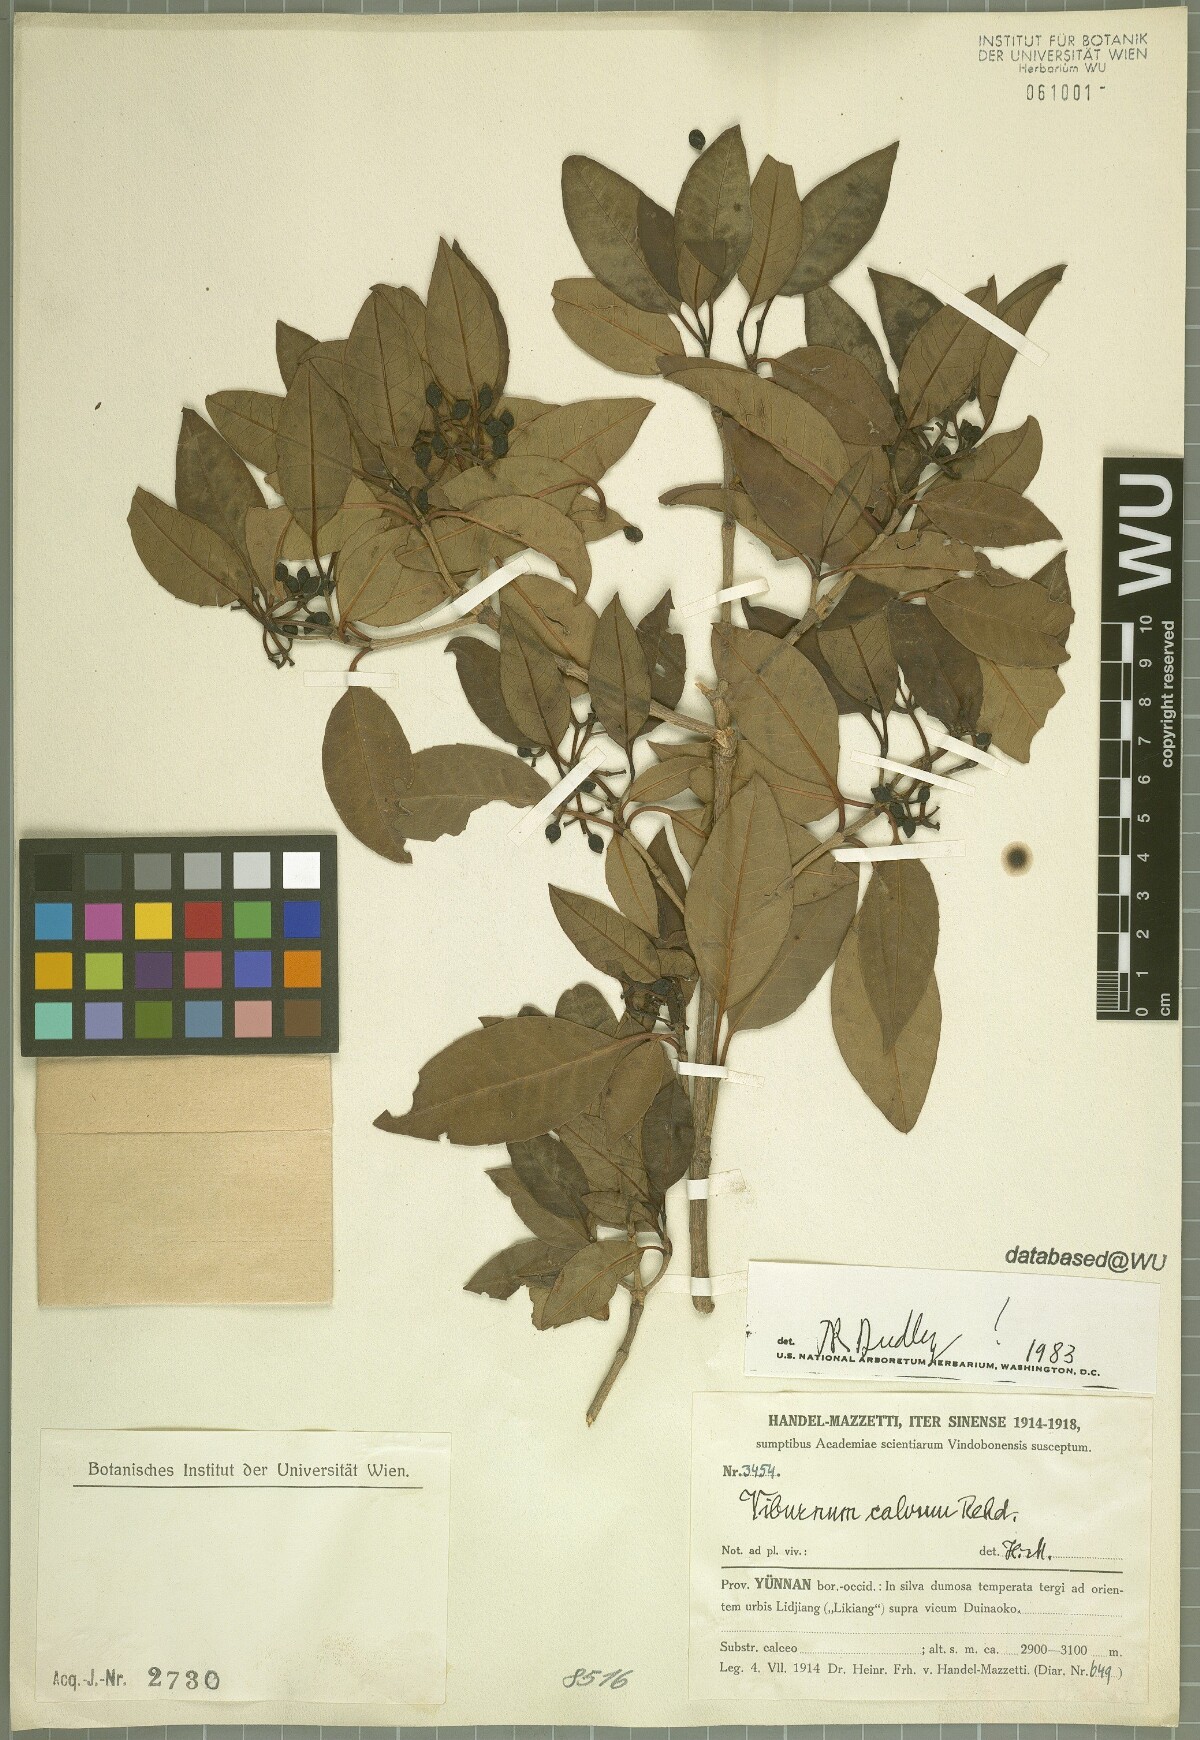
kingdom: Plantae
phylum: Tracheophyta
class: Magnoliopsida
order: Dipsacales
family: Viburnaceae
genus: Viburnum
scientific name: Viburnum atrocyaneum
